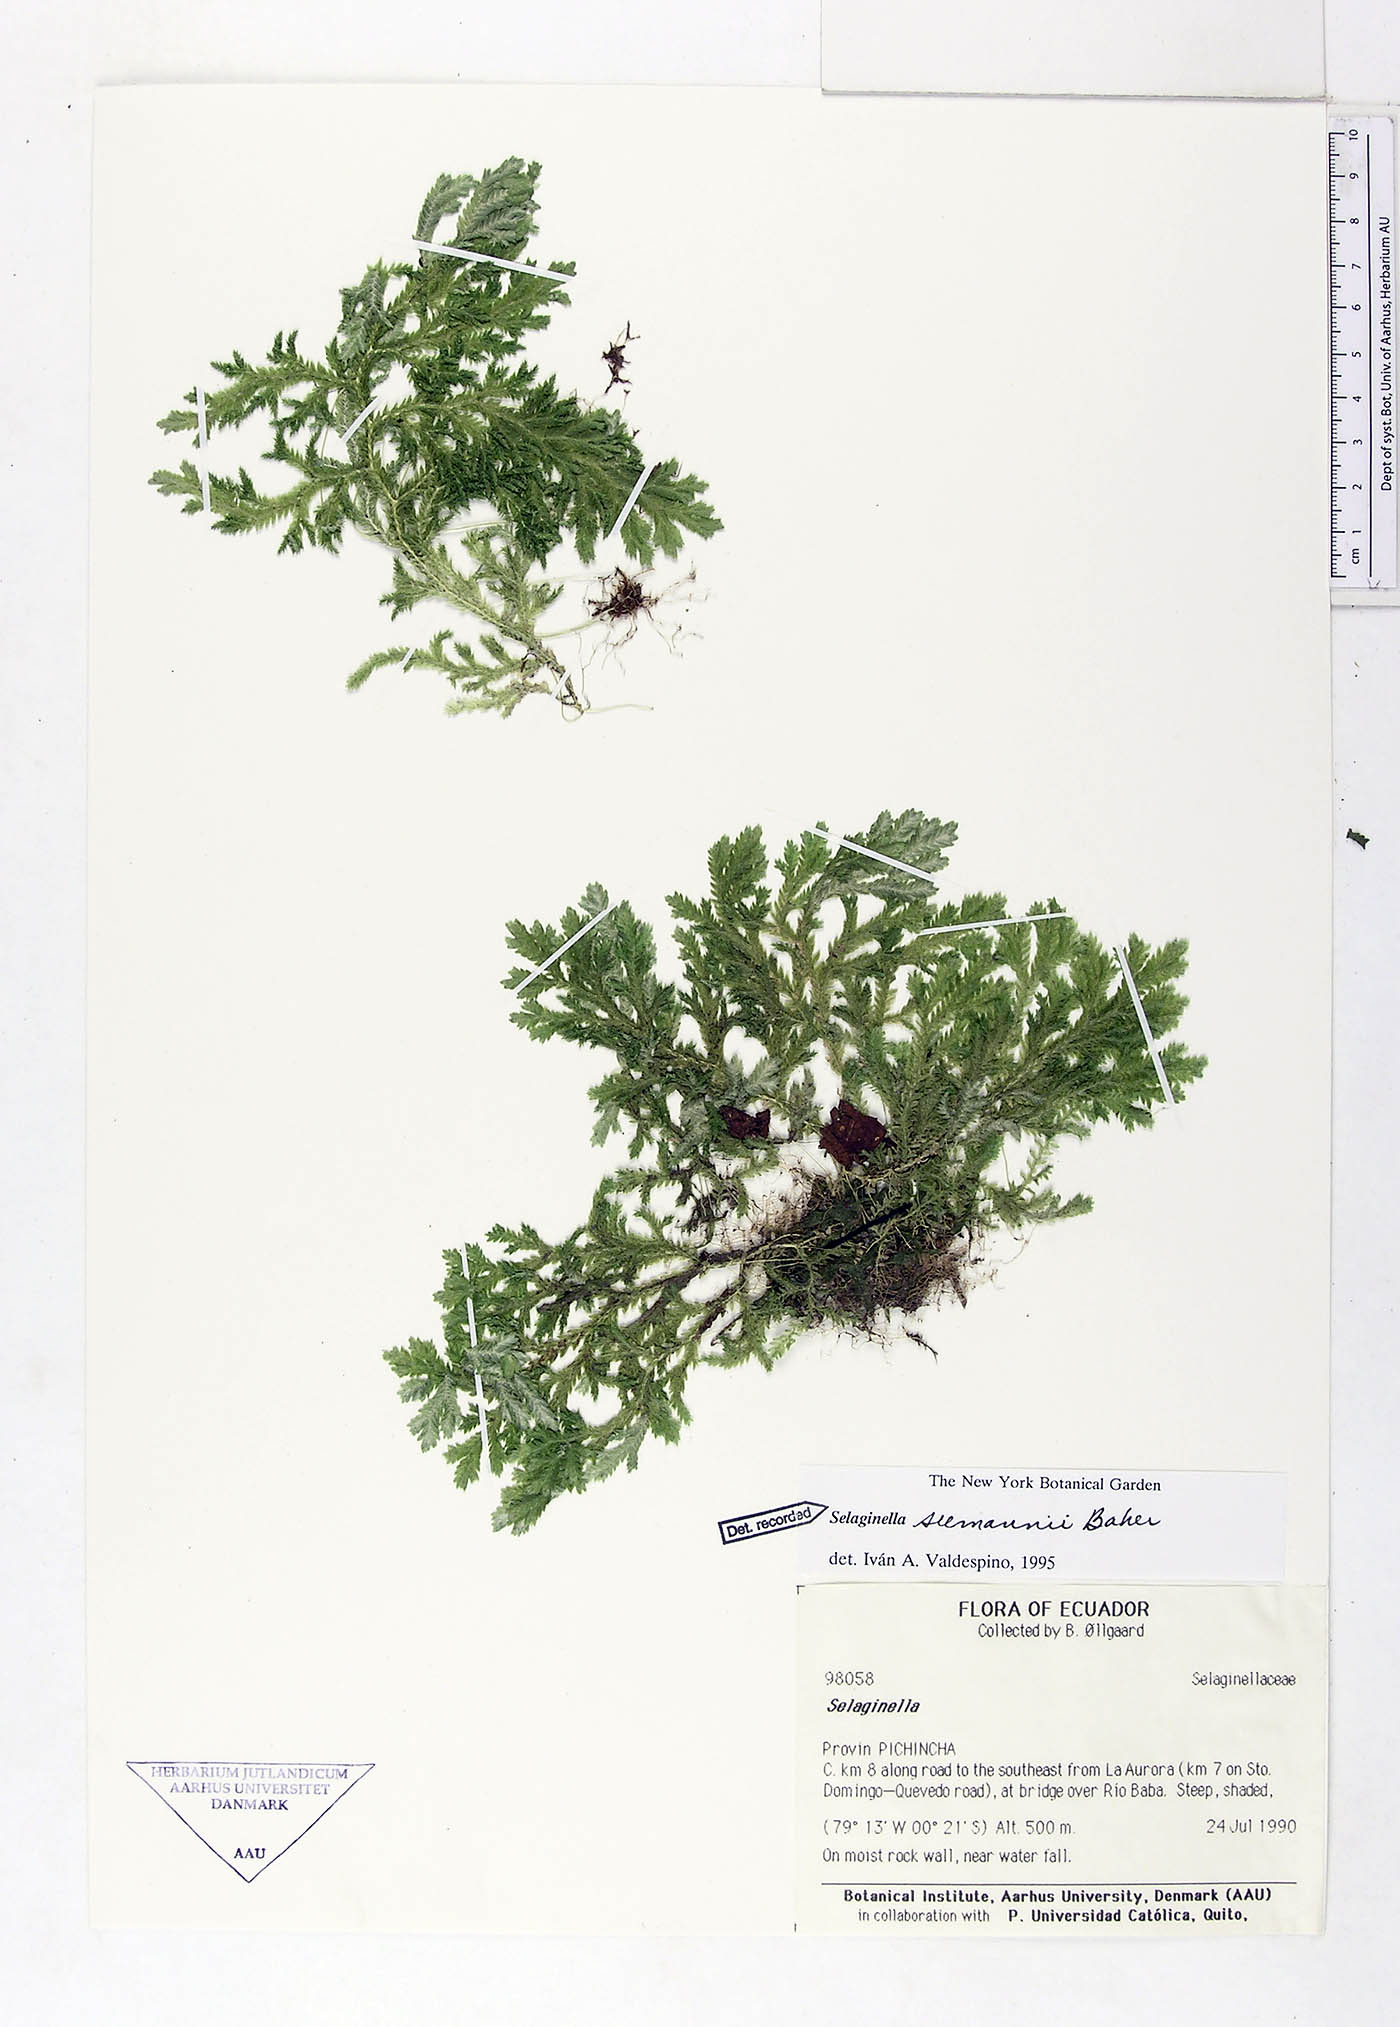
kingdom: Plantae
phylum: Tracheophyta
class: Lycopodiopsida
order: Selaginellales
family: Selaginellaceae
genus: Selaginella
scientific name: Selaginella seemannii
